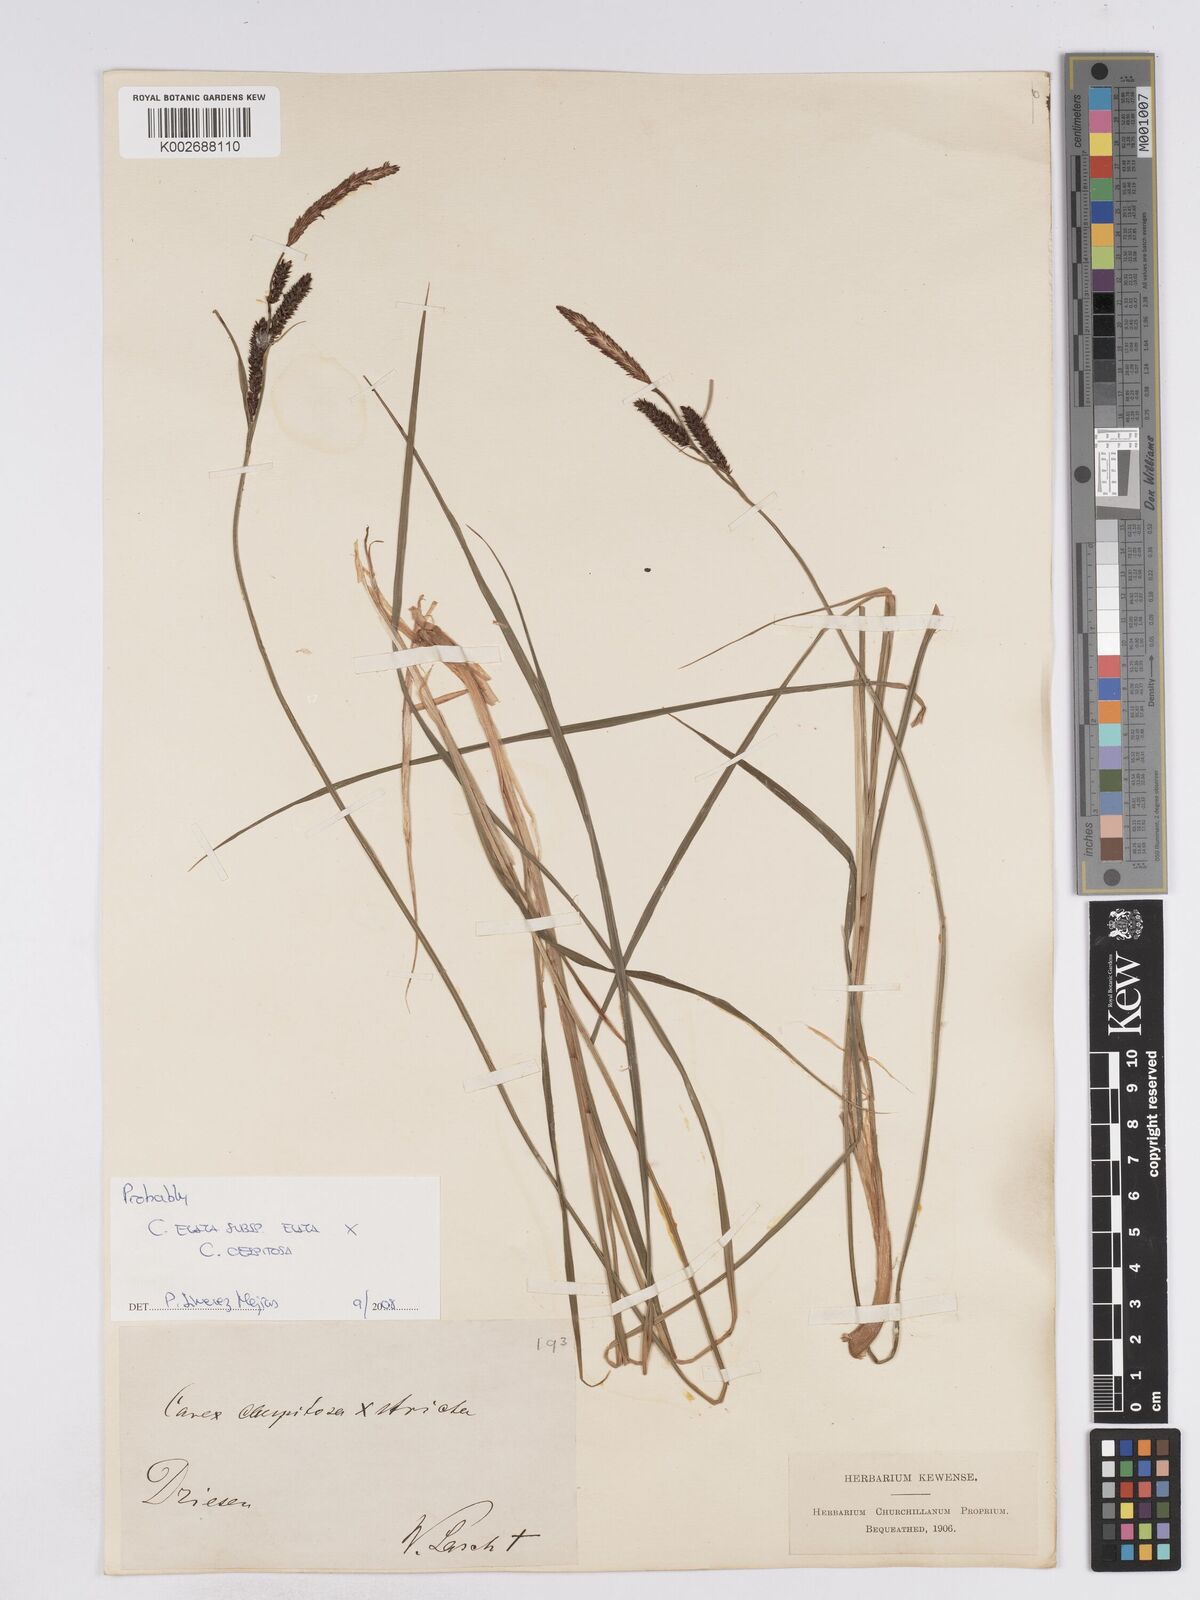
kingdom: Plantae
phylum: Tracheophyta
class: Liliopsida
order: Poales
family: Cyperaceae
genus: Carex
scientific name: Carex
